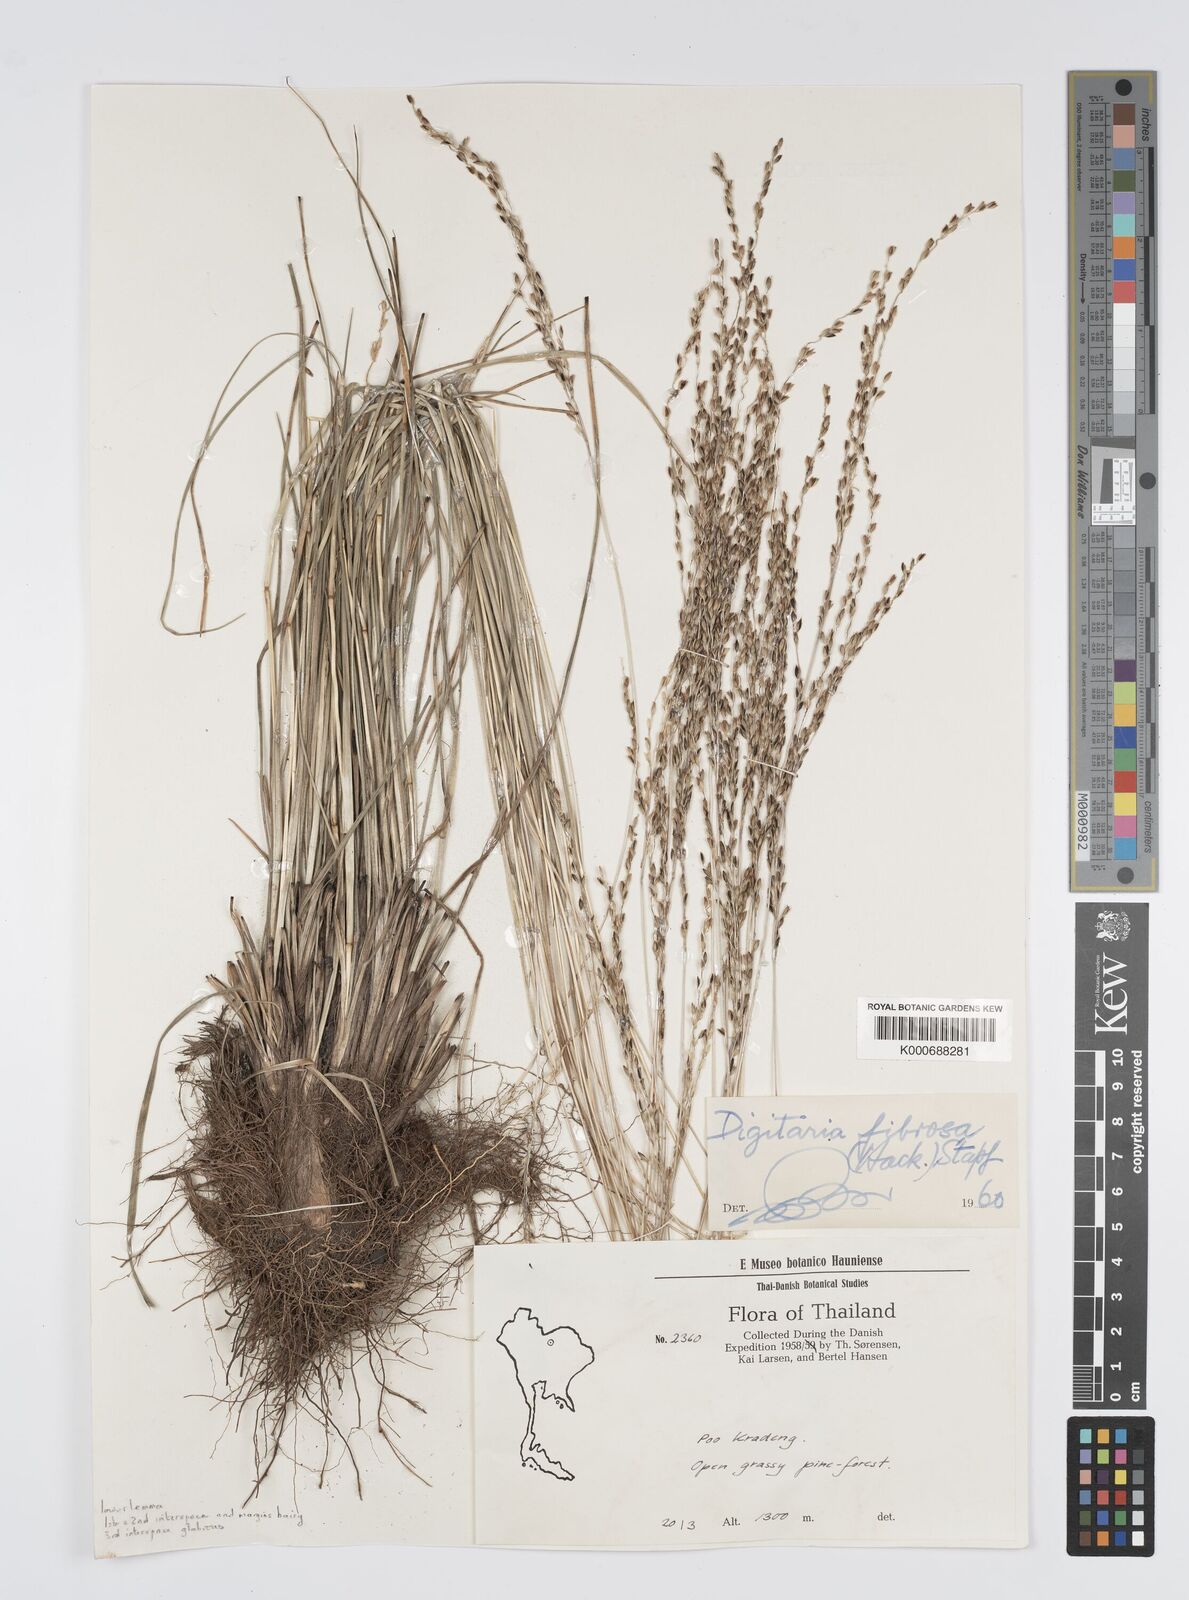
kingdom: Plantae
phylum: Tracheophyta
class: Liliopsida
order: Poales
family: Poaceae
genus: Digitaria
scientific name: Digitaria setifolia
